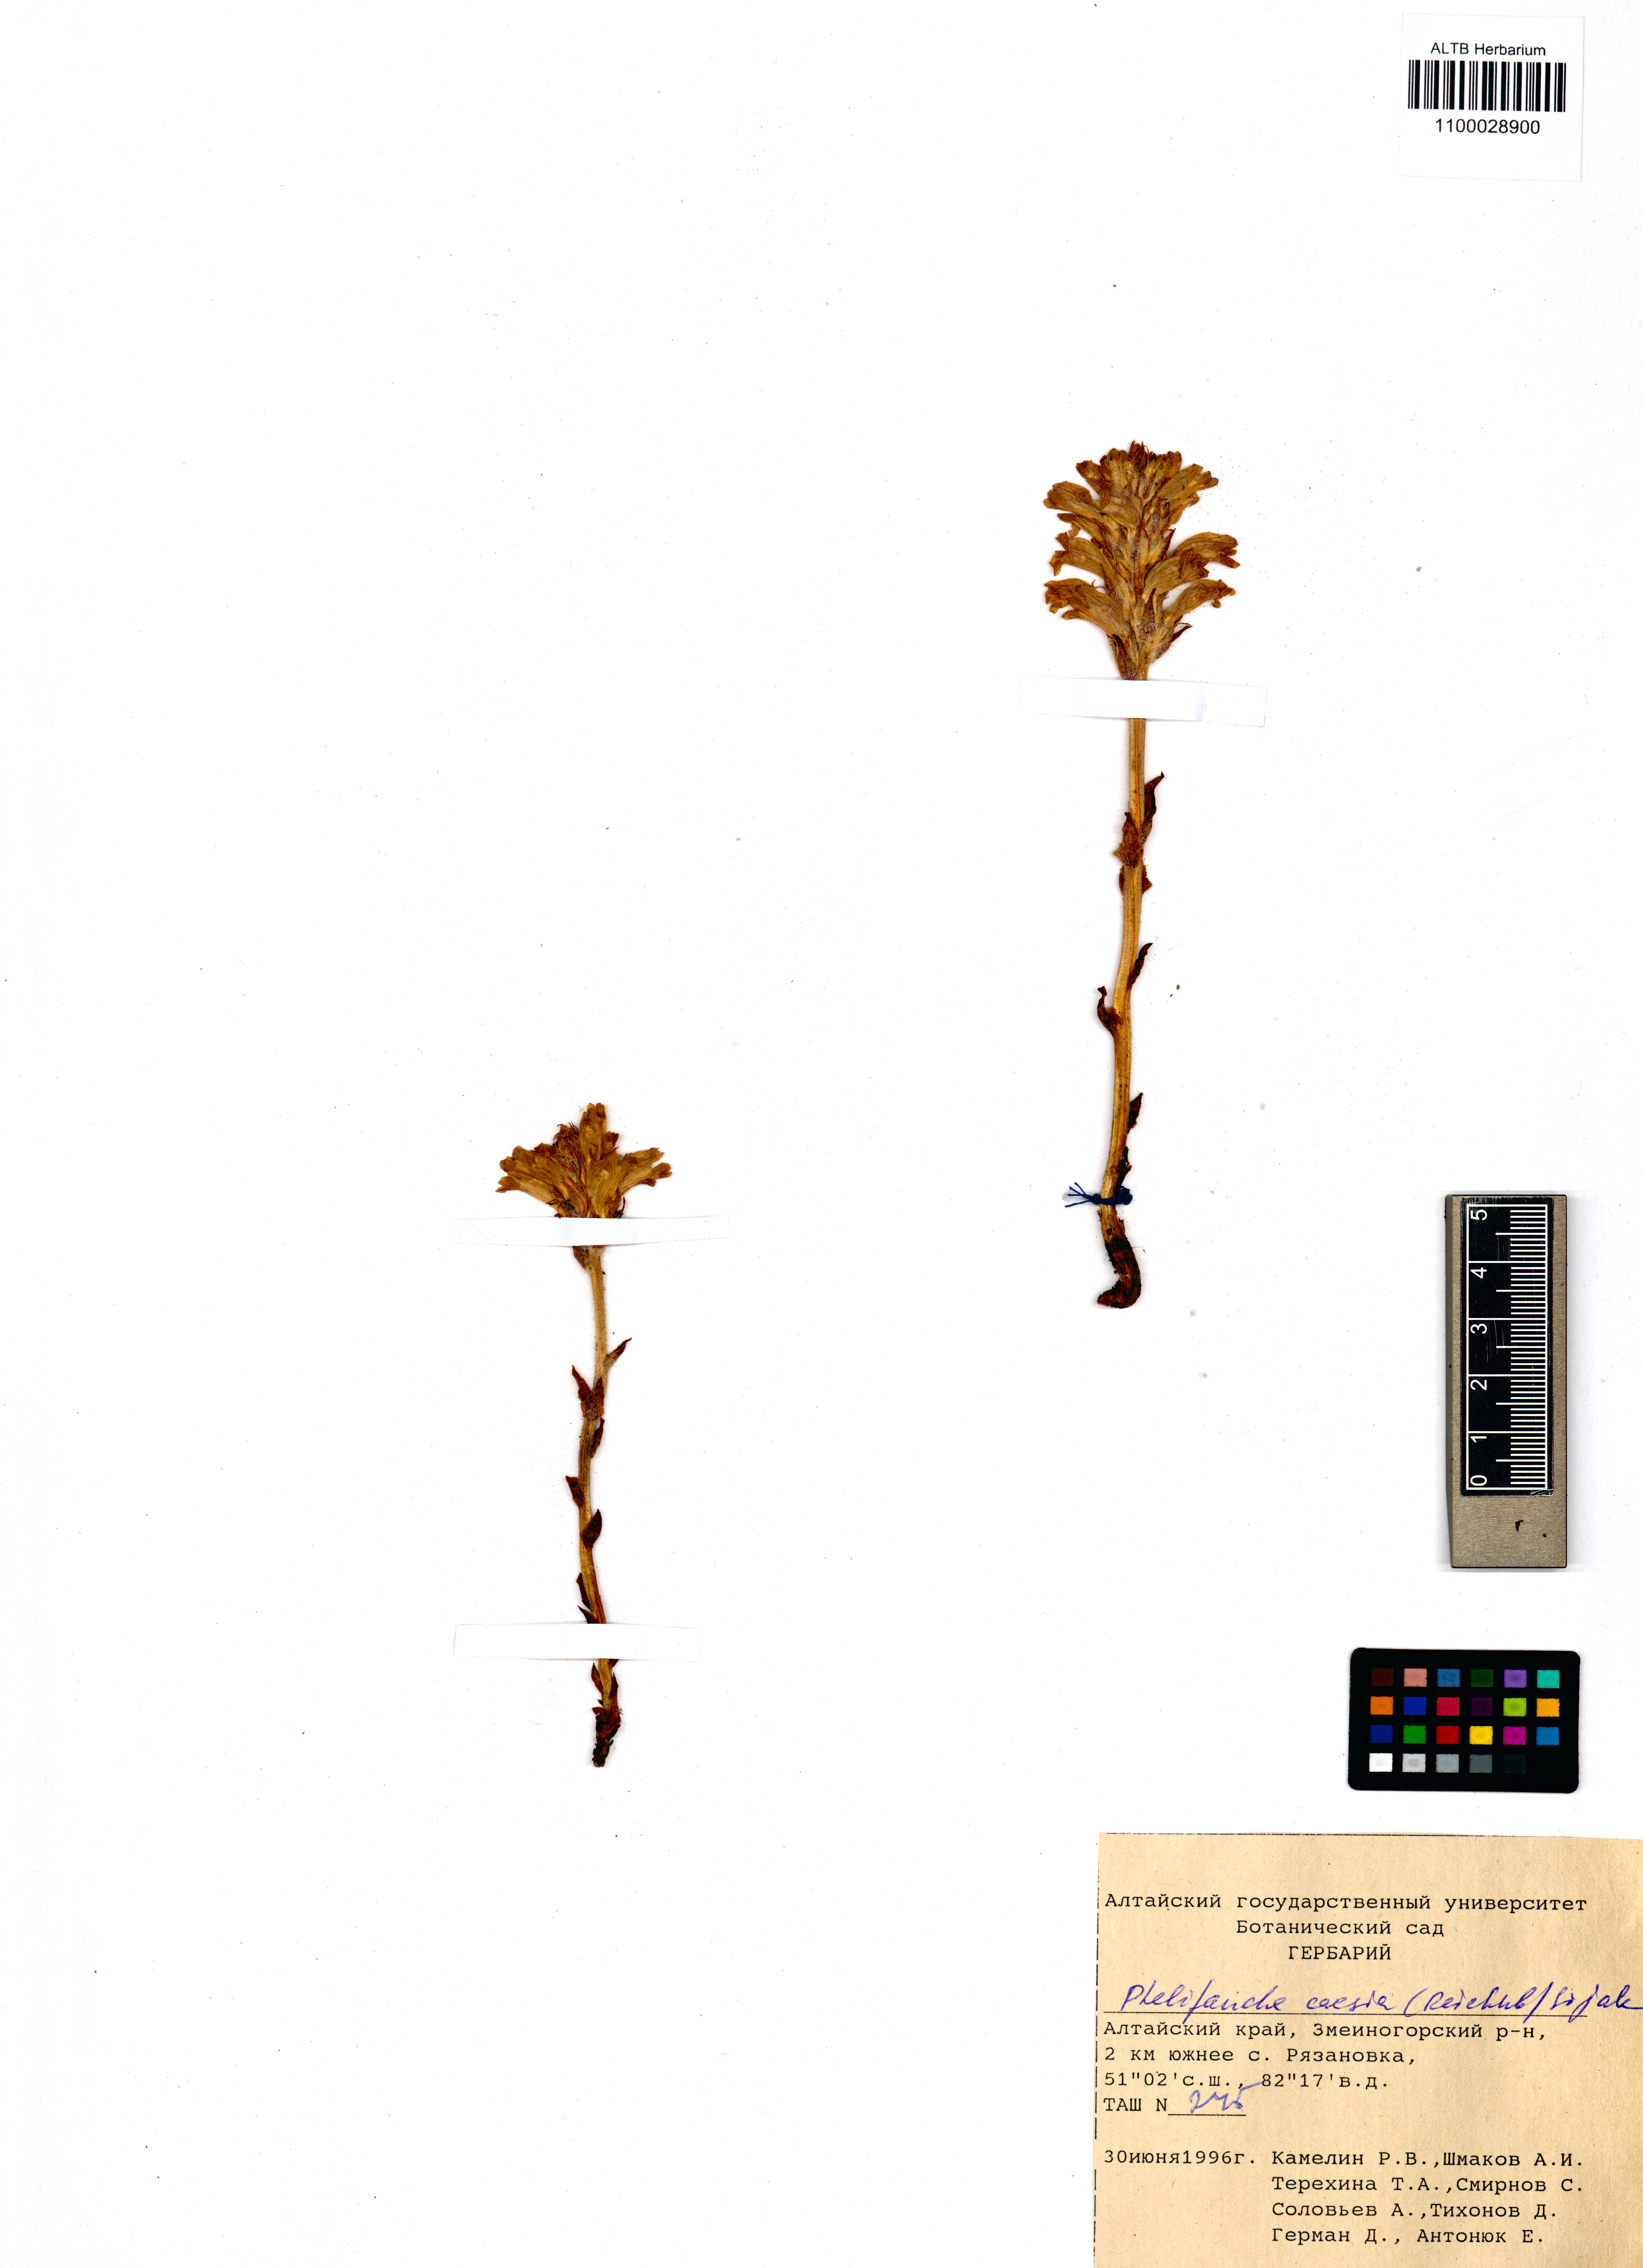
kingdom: Plantae
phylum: Tracheophyta
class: Magnoliopsida
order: Lamiales
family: Orobanchaceae
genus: Phelipanche
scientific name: Phelipanche caesia
